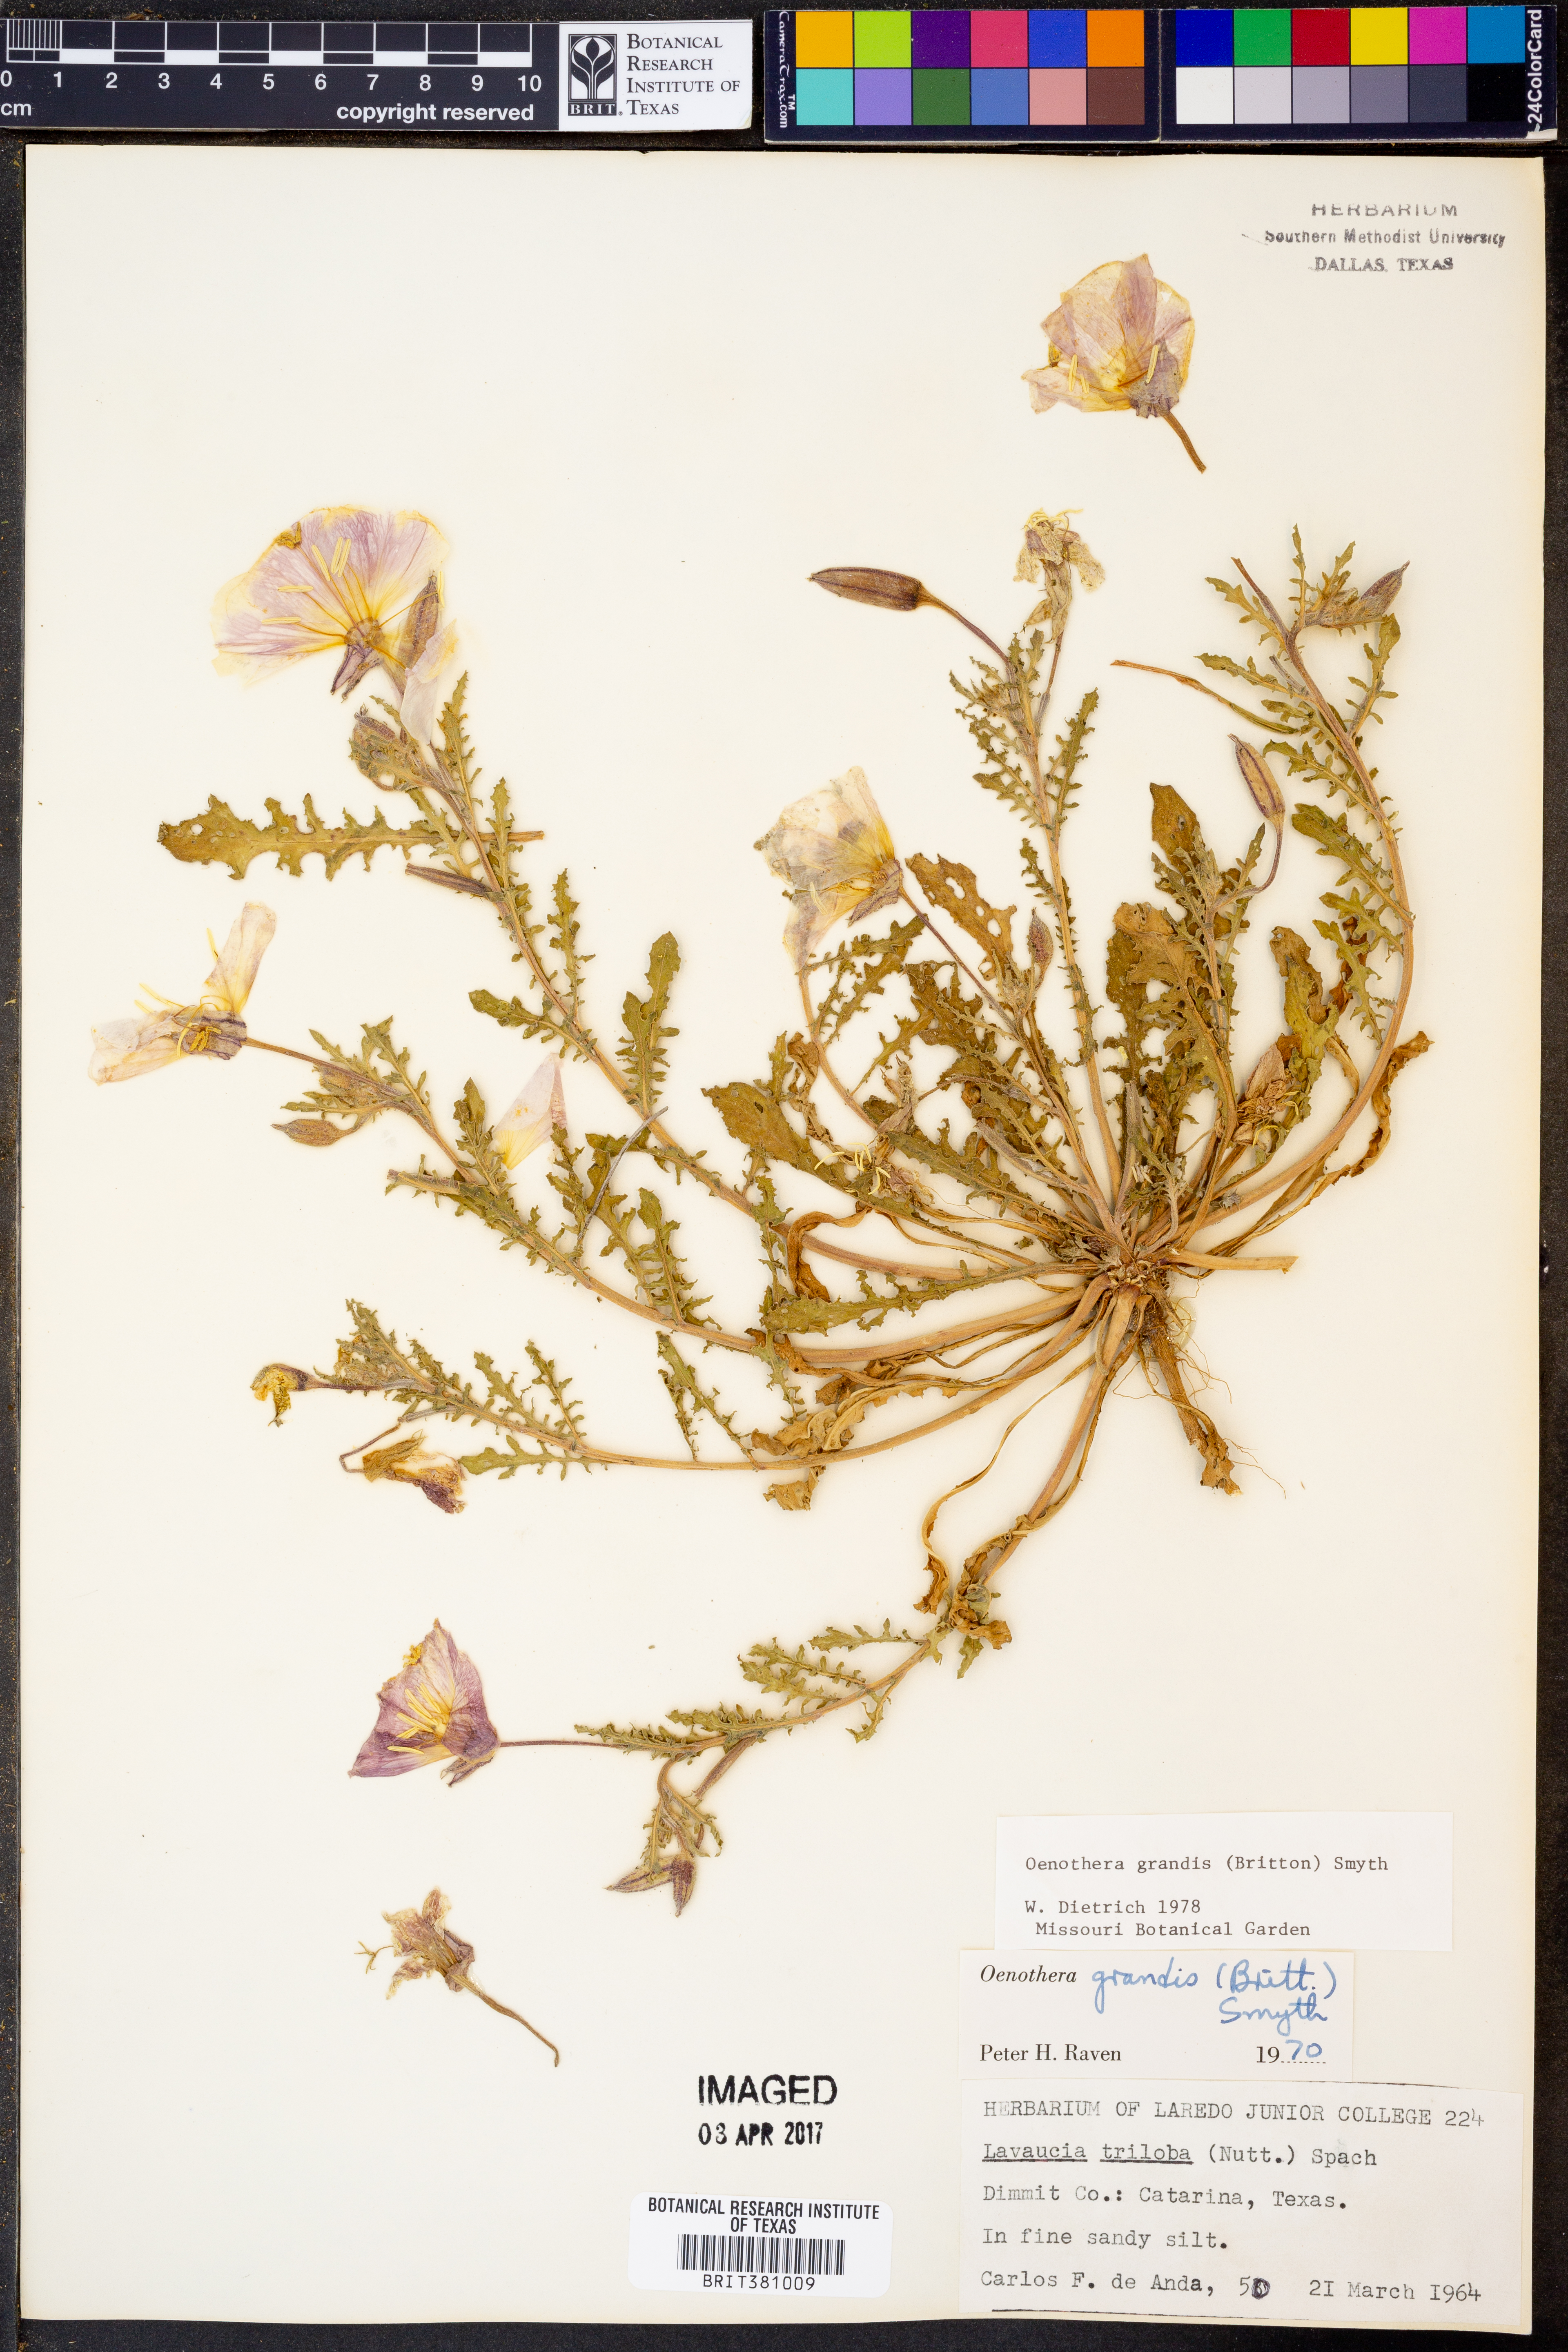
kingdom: Plantae
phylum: Tracheophyta
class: Magnoliopsida
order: Myrtales
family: Onagraceae
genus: Oenothera
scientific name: Oenothera grandis
